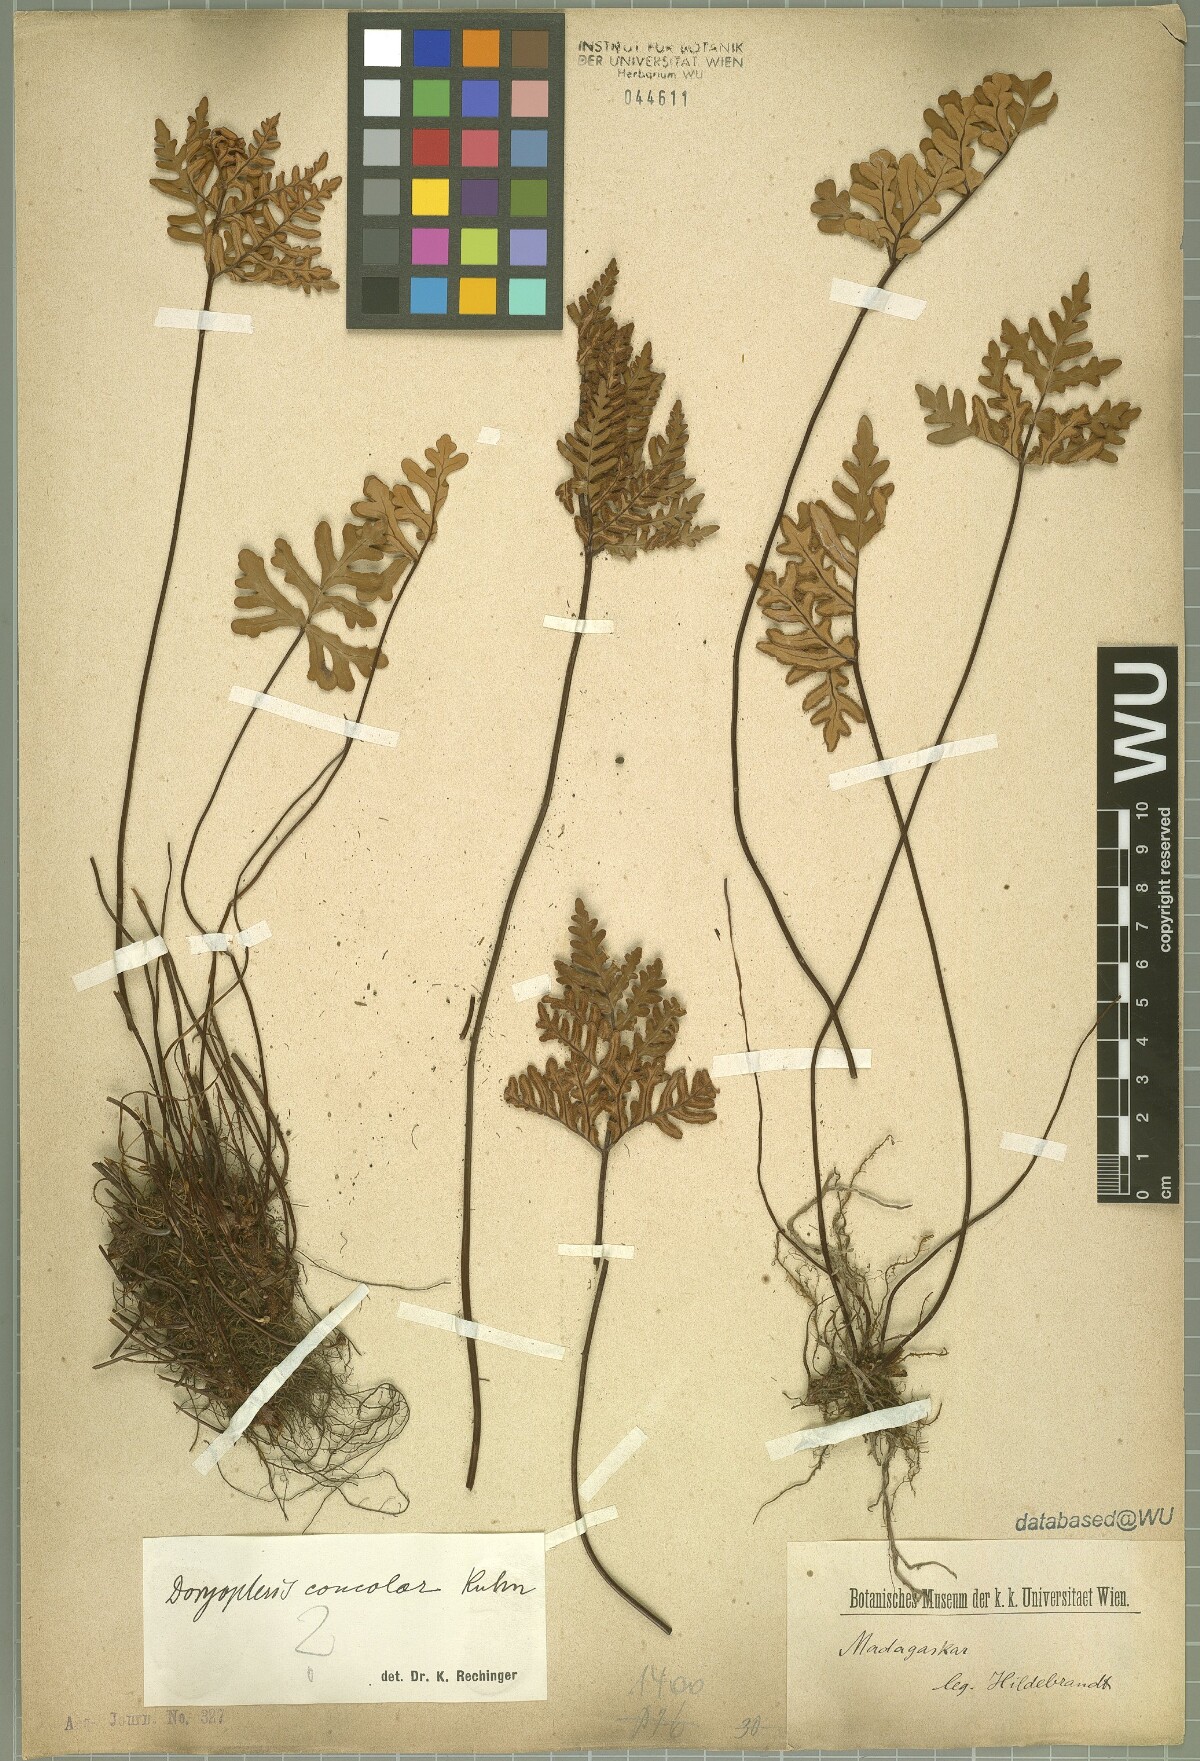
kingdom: Plantae
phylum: Tracheophyta
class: Polypodiopsida
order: Polypodiales
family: Pteridaceae
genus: Doryopteris
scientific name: Doryopteris concolor
